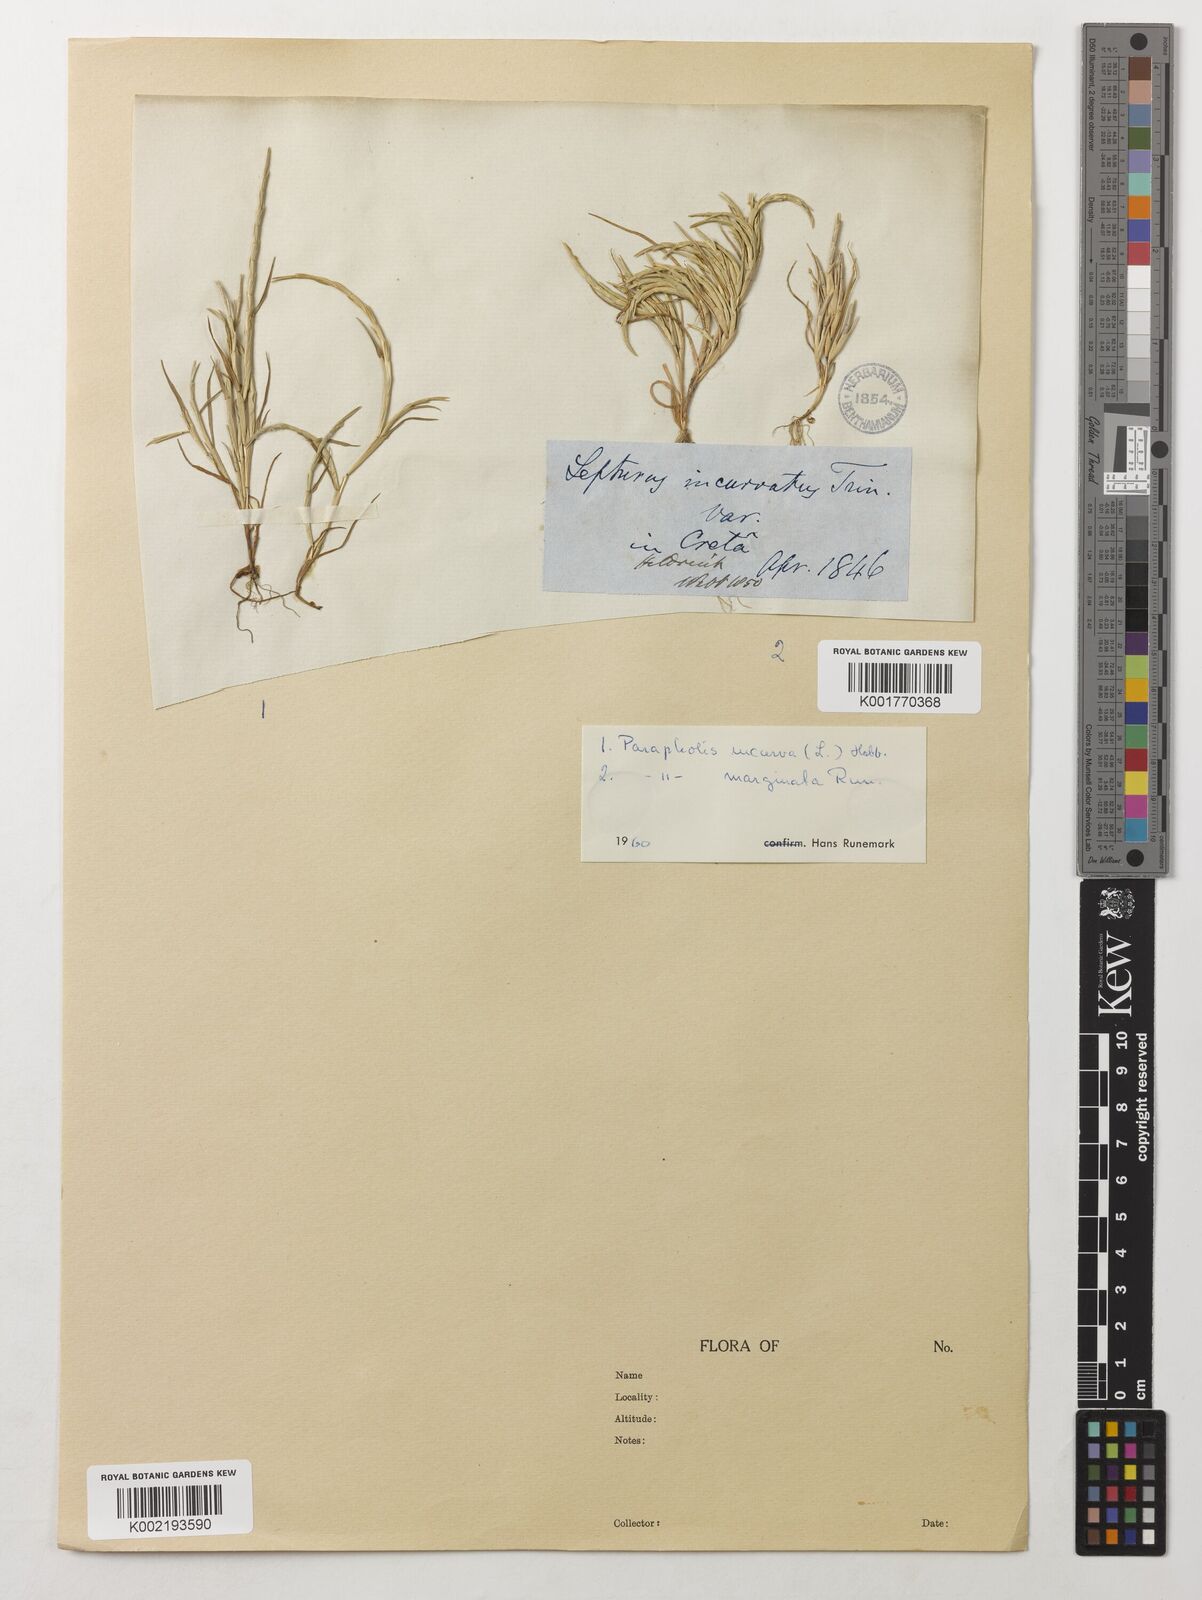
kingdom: Plantae
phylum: Tracheophyta
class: Liliopsida
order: Poales
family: Poaceae
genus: Parapholis
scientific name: Parapholis marginata
